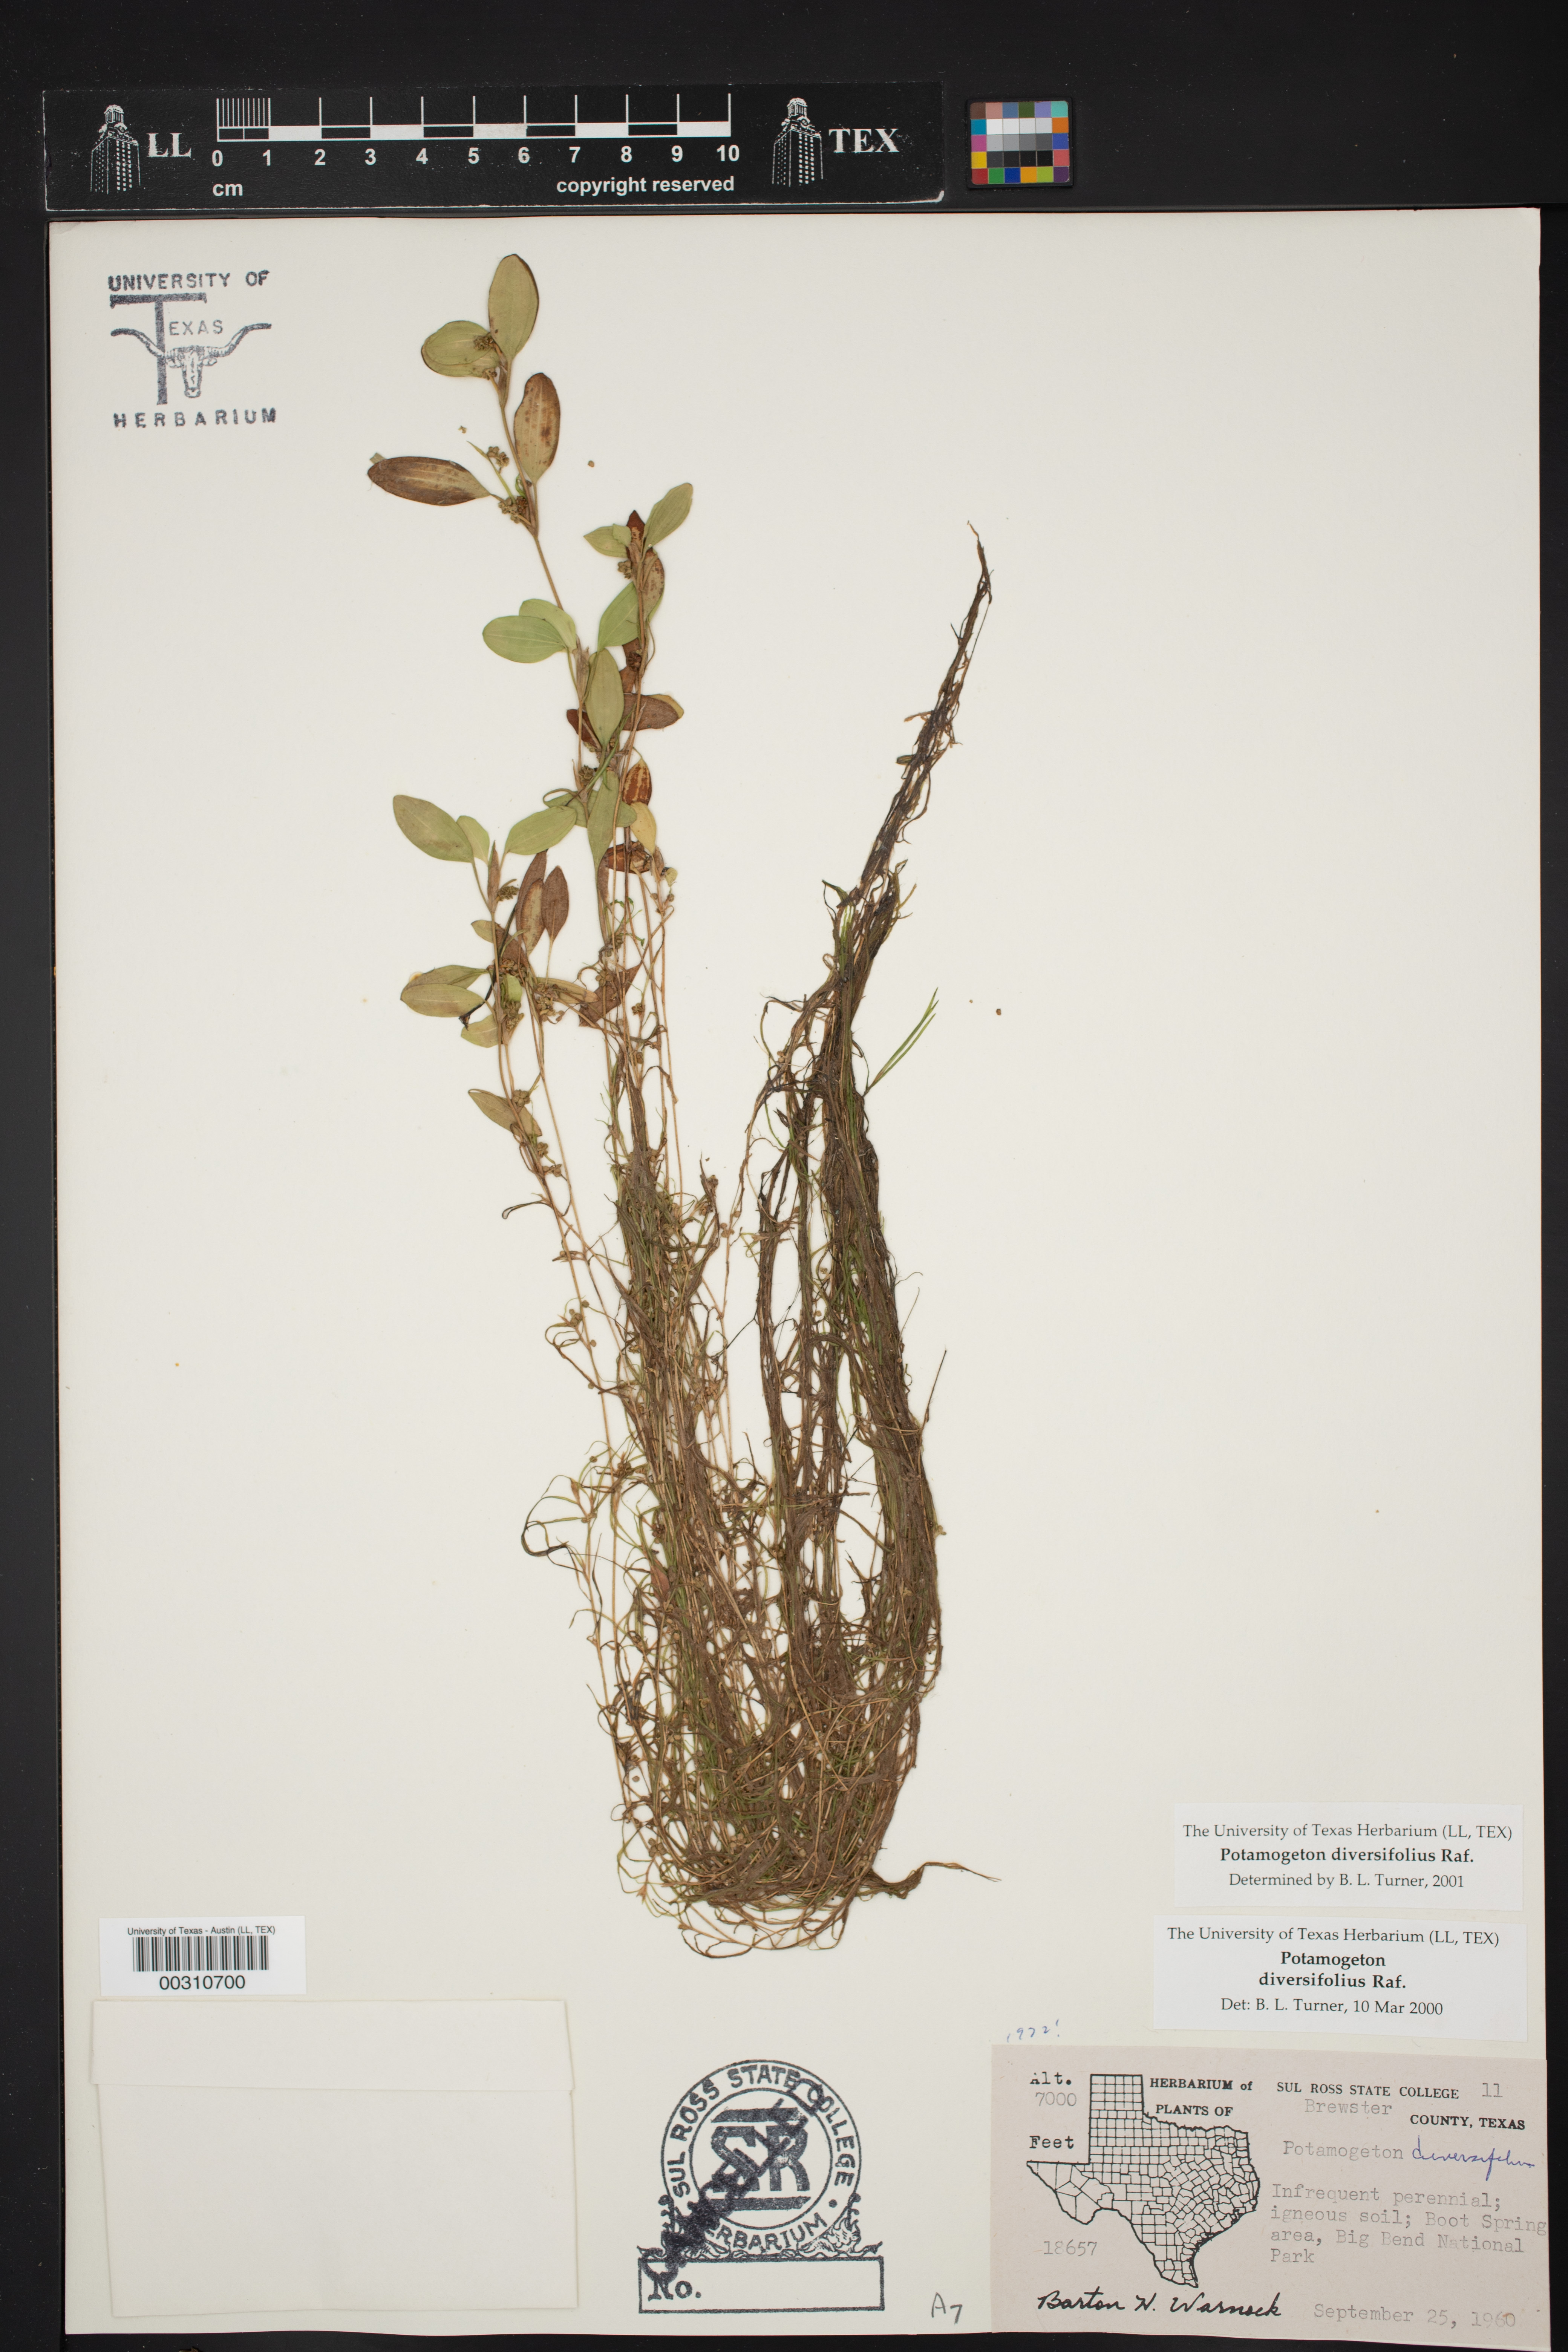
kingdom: Plantae
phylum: Tracheophyta
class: Liliopsida
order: Alismatales
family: Potamogetonaceae
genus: Potamogeton
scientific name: Potamogeton diversifolius
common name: Water-thread pondweed
